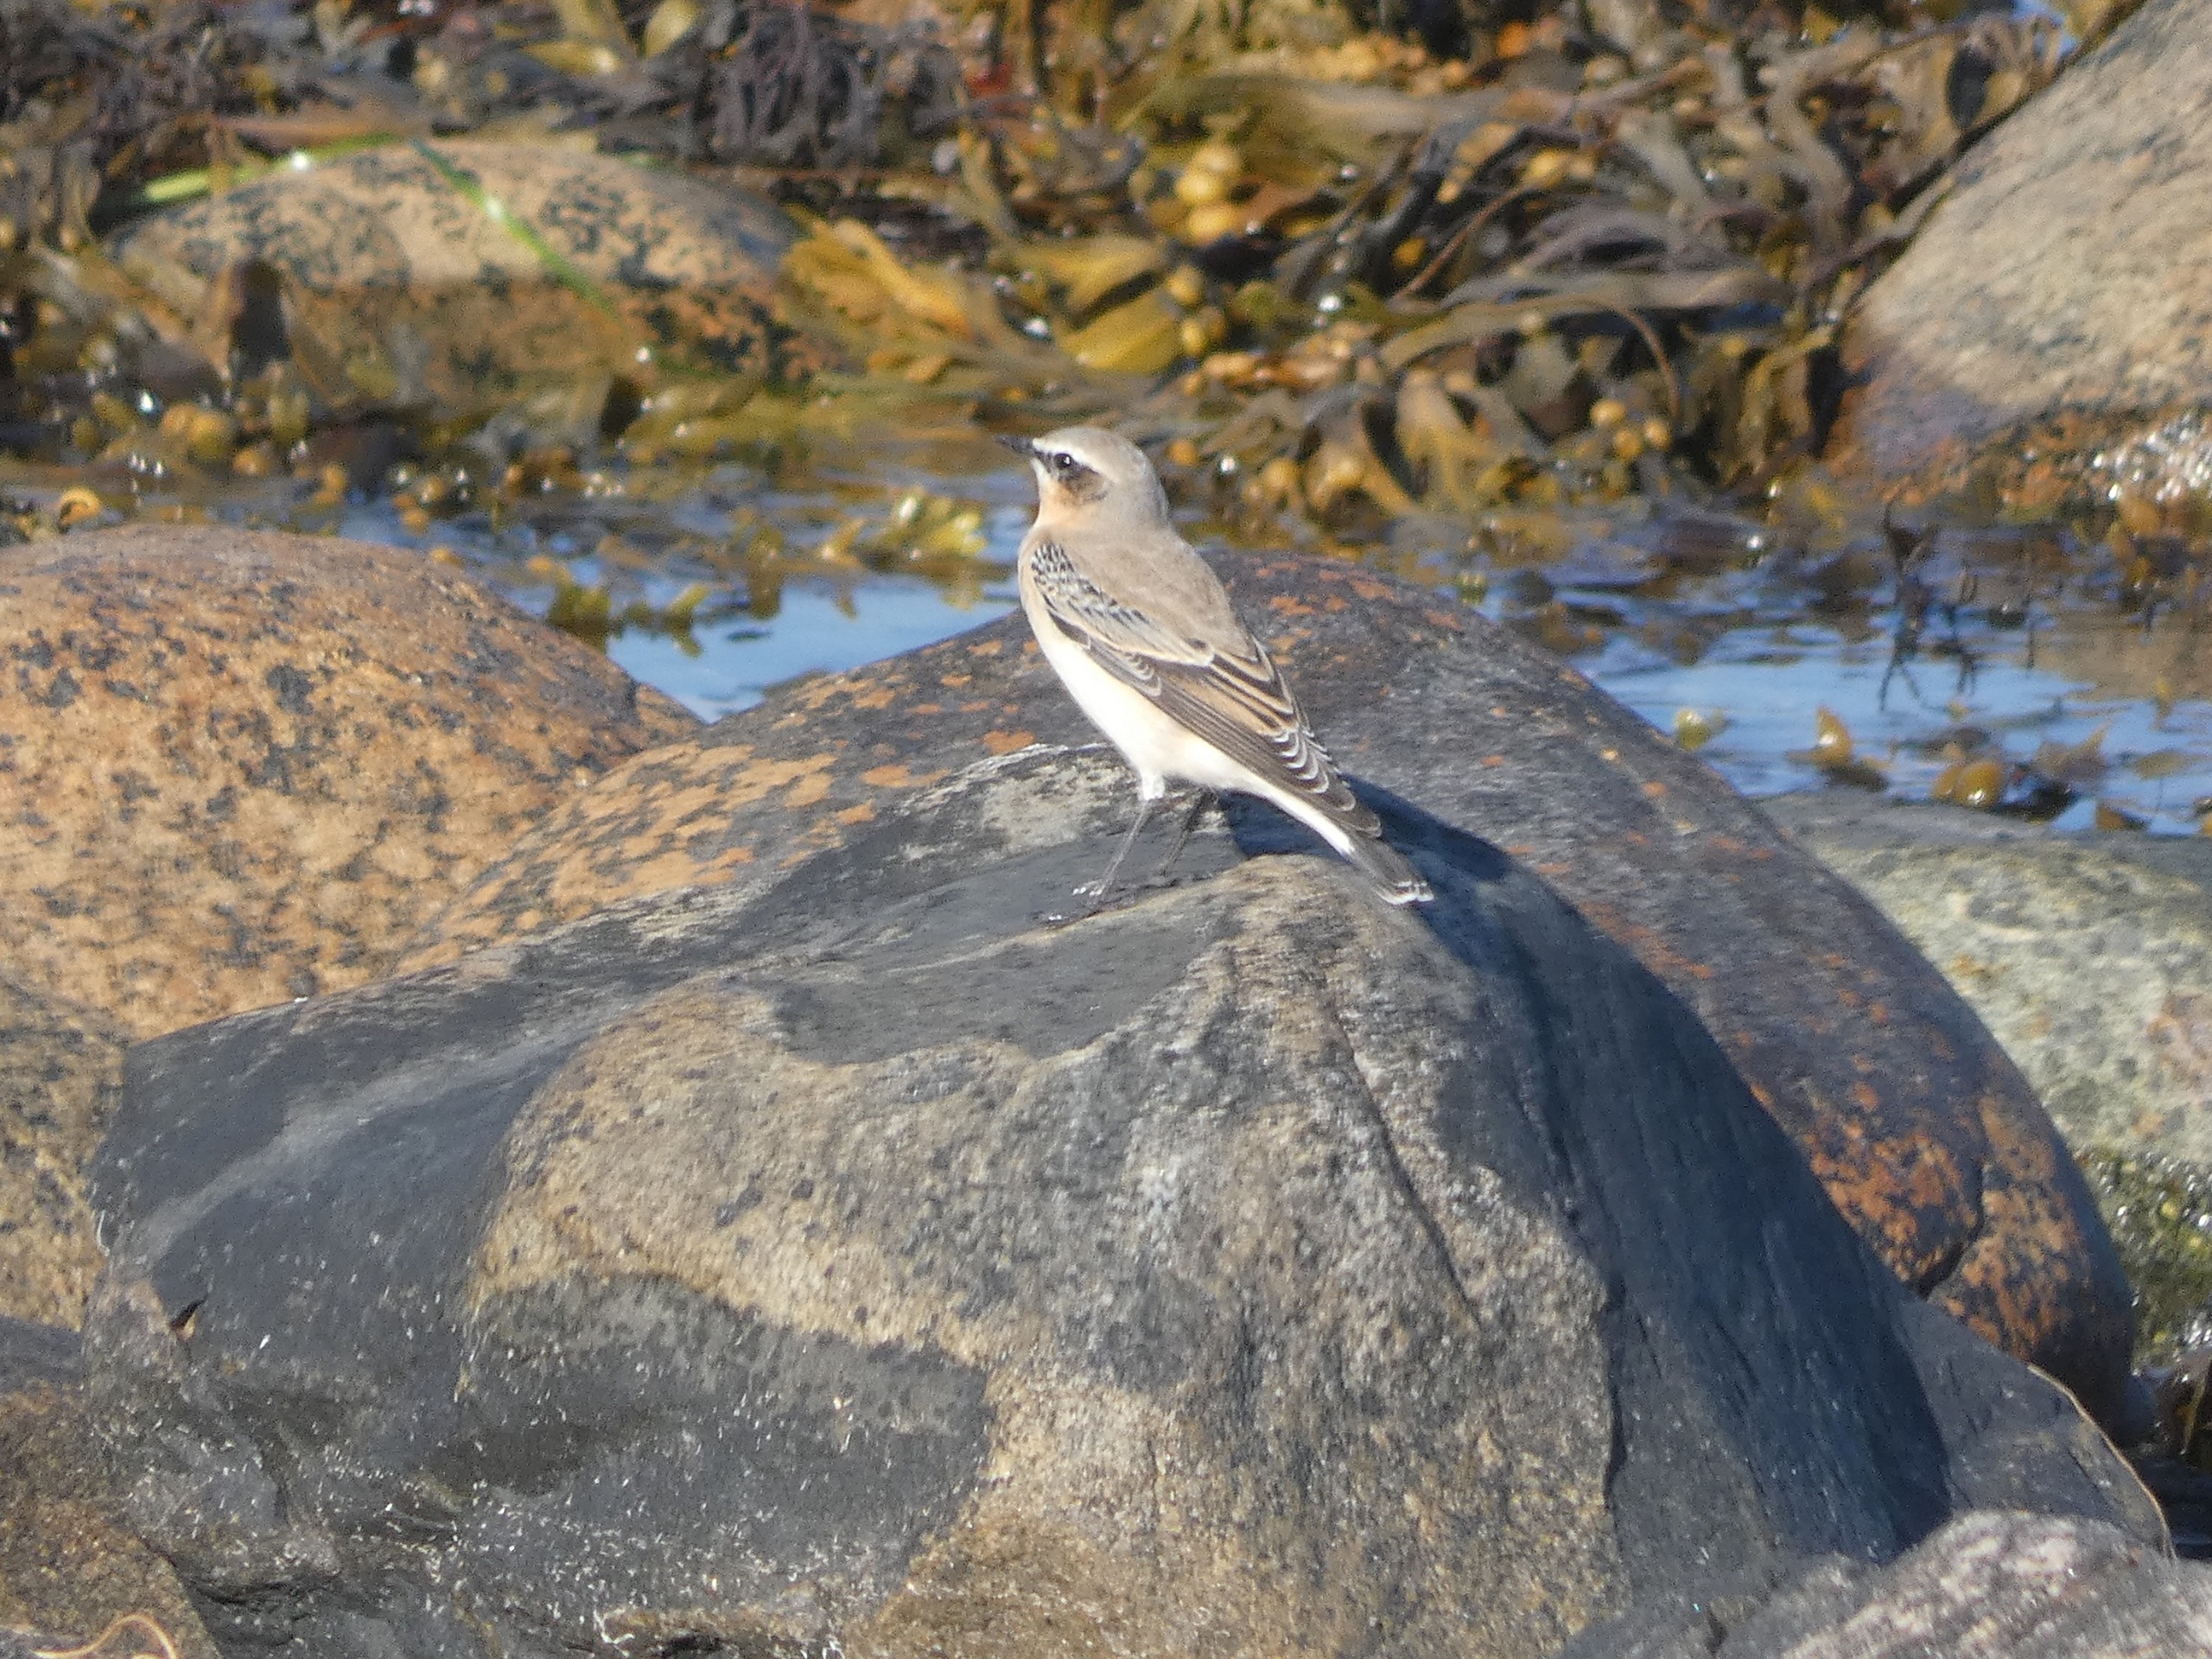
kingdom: Animalia
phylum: Chordata
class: Aves
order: Passeriformes
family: Muscicapidae
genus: Oenanthe
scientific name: Oenanthe oenanthe
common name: Stenpikker
